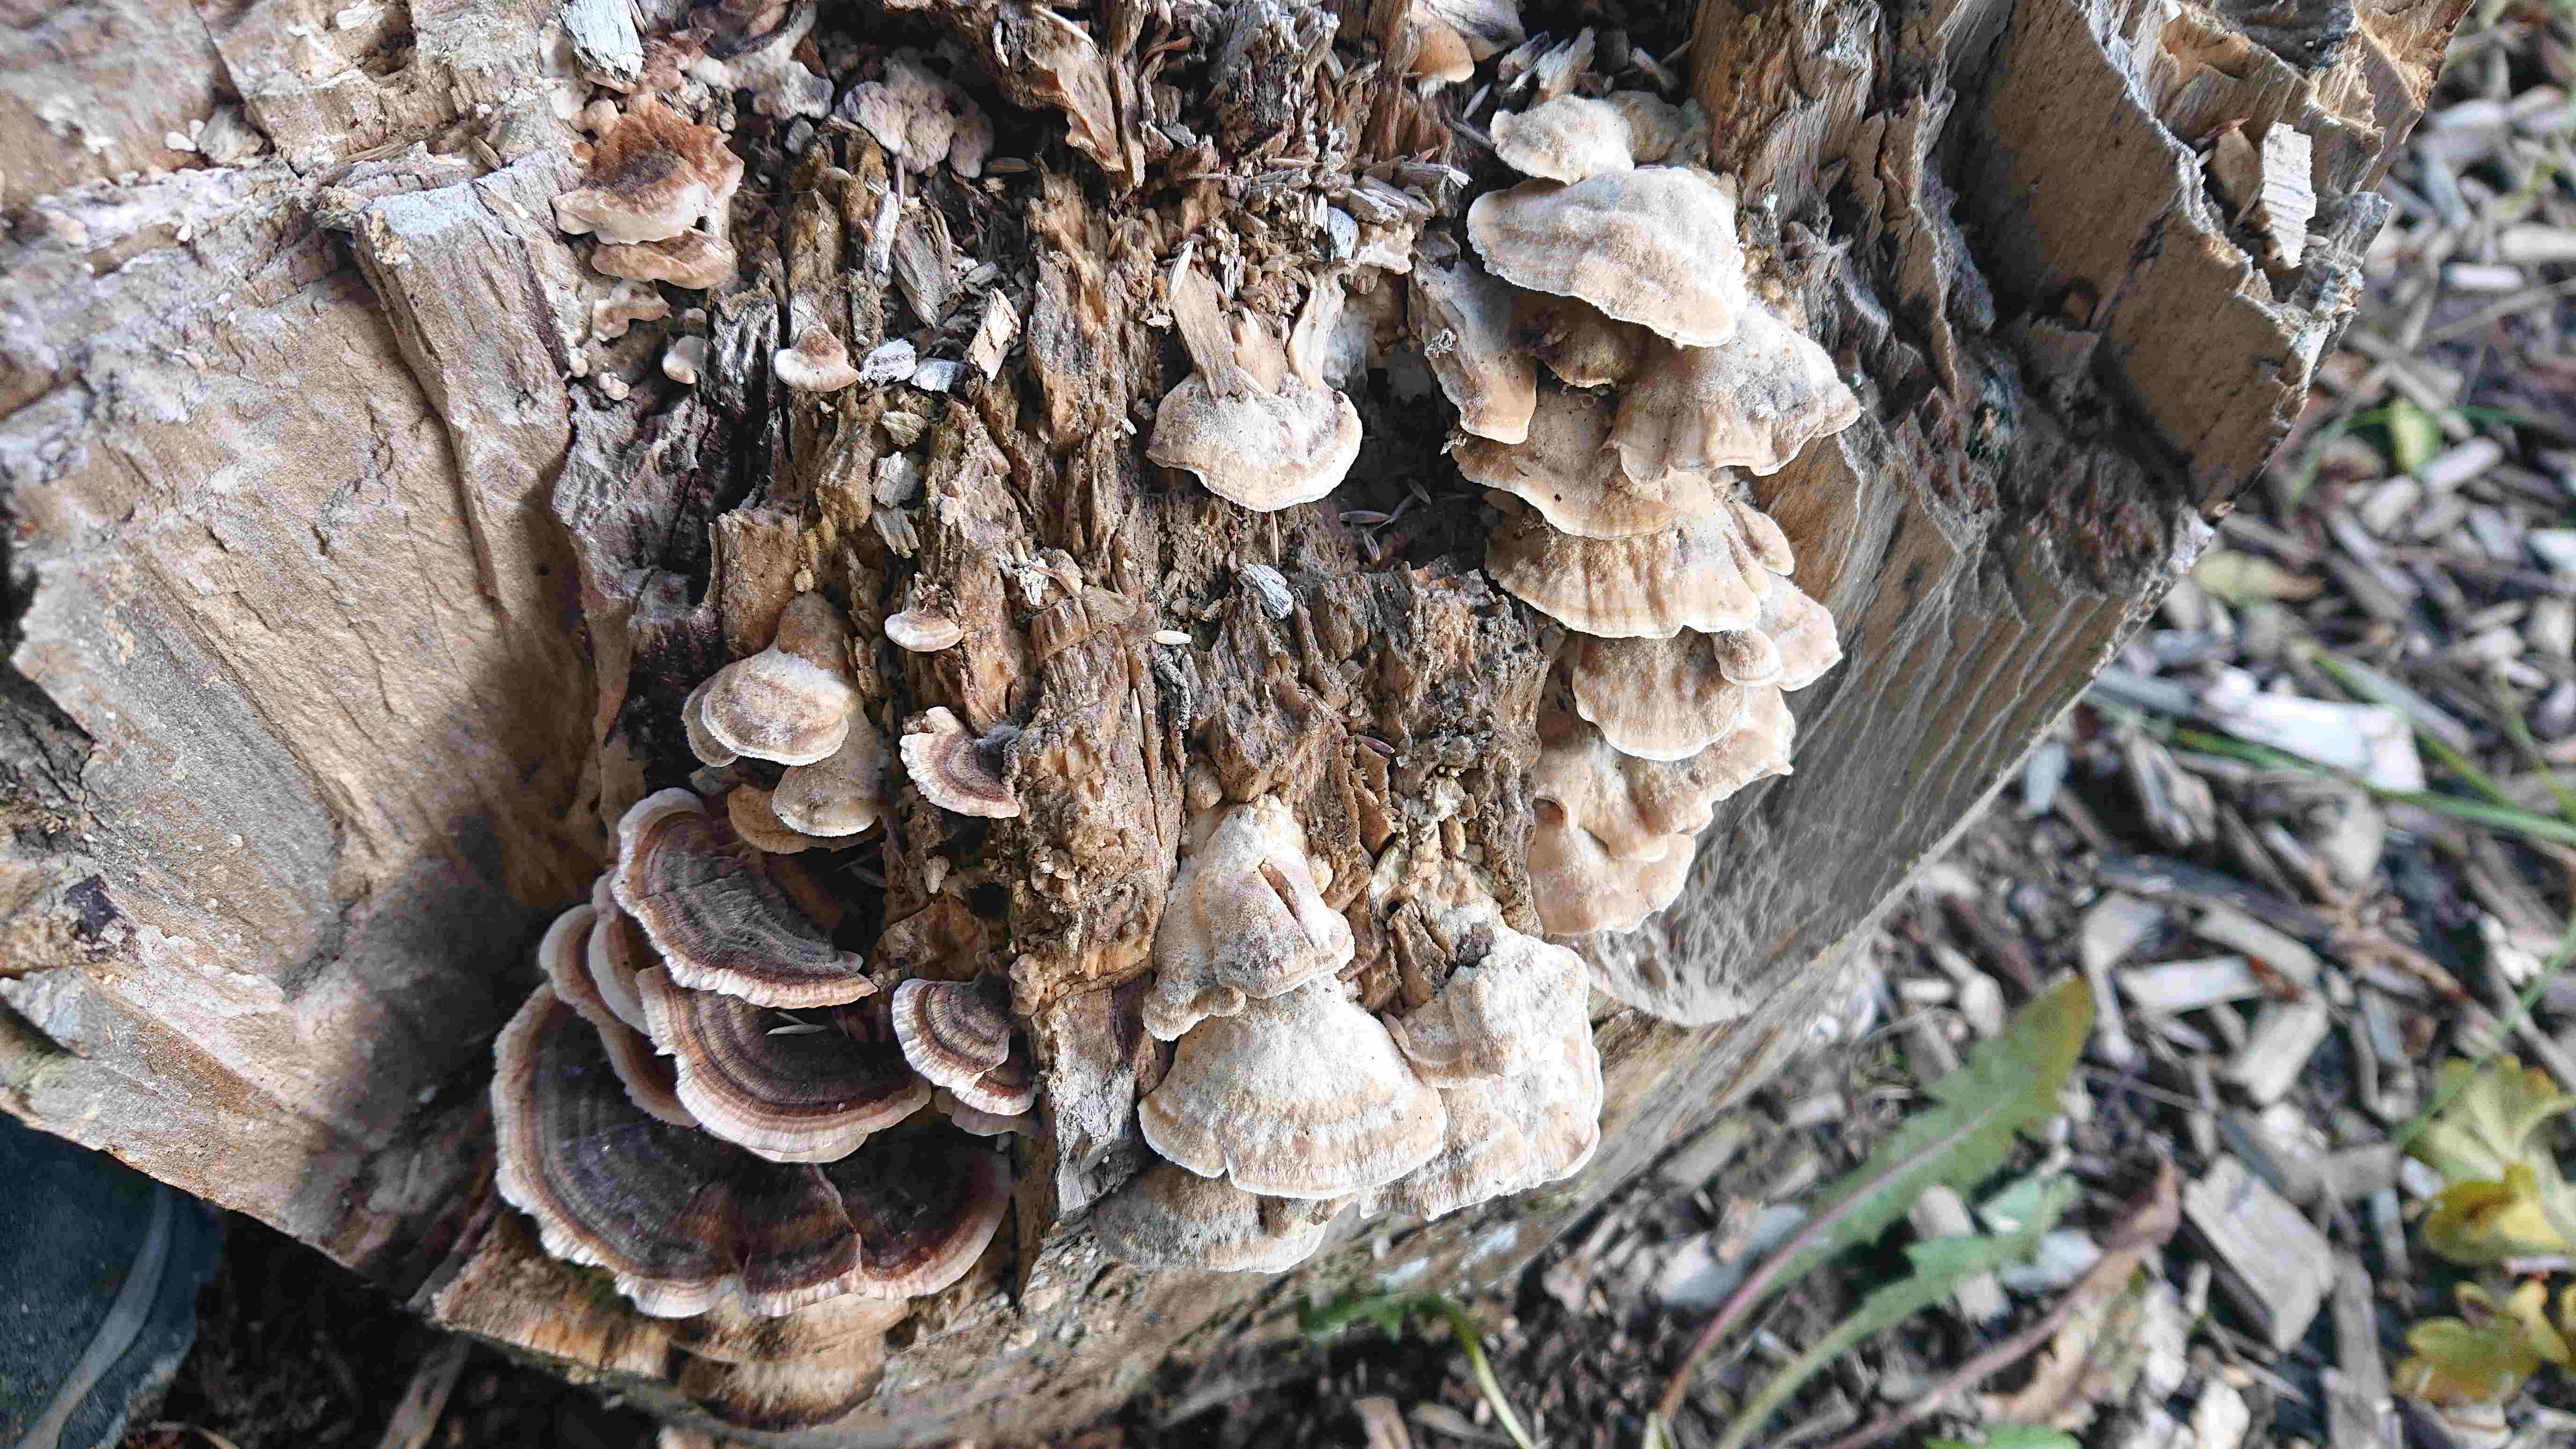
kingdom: Fungi
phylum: Basidiomycota
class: Agaricomycetes
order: Polyporales
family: Polyporaceae
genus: Trametes
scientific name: Trametes versicolor
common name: broget læderporesvamp
